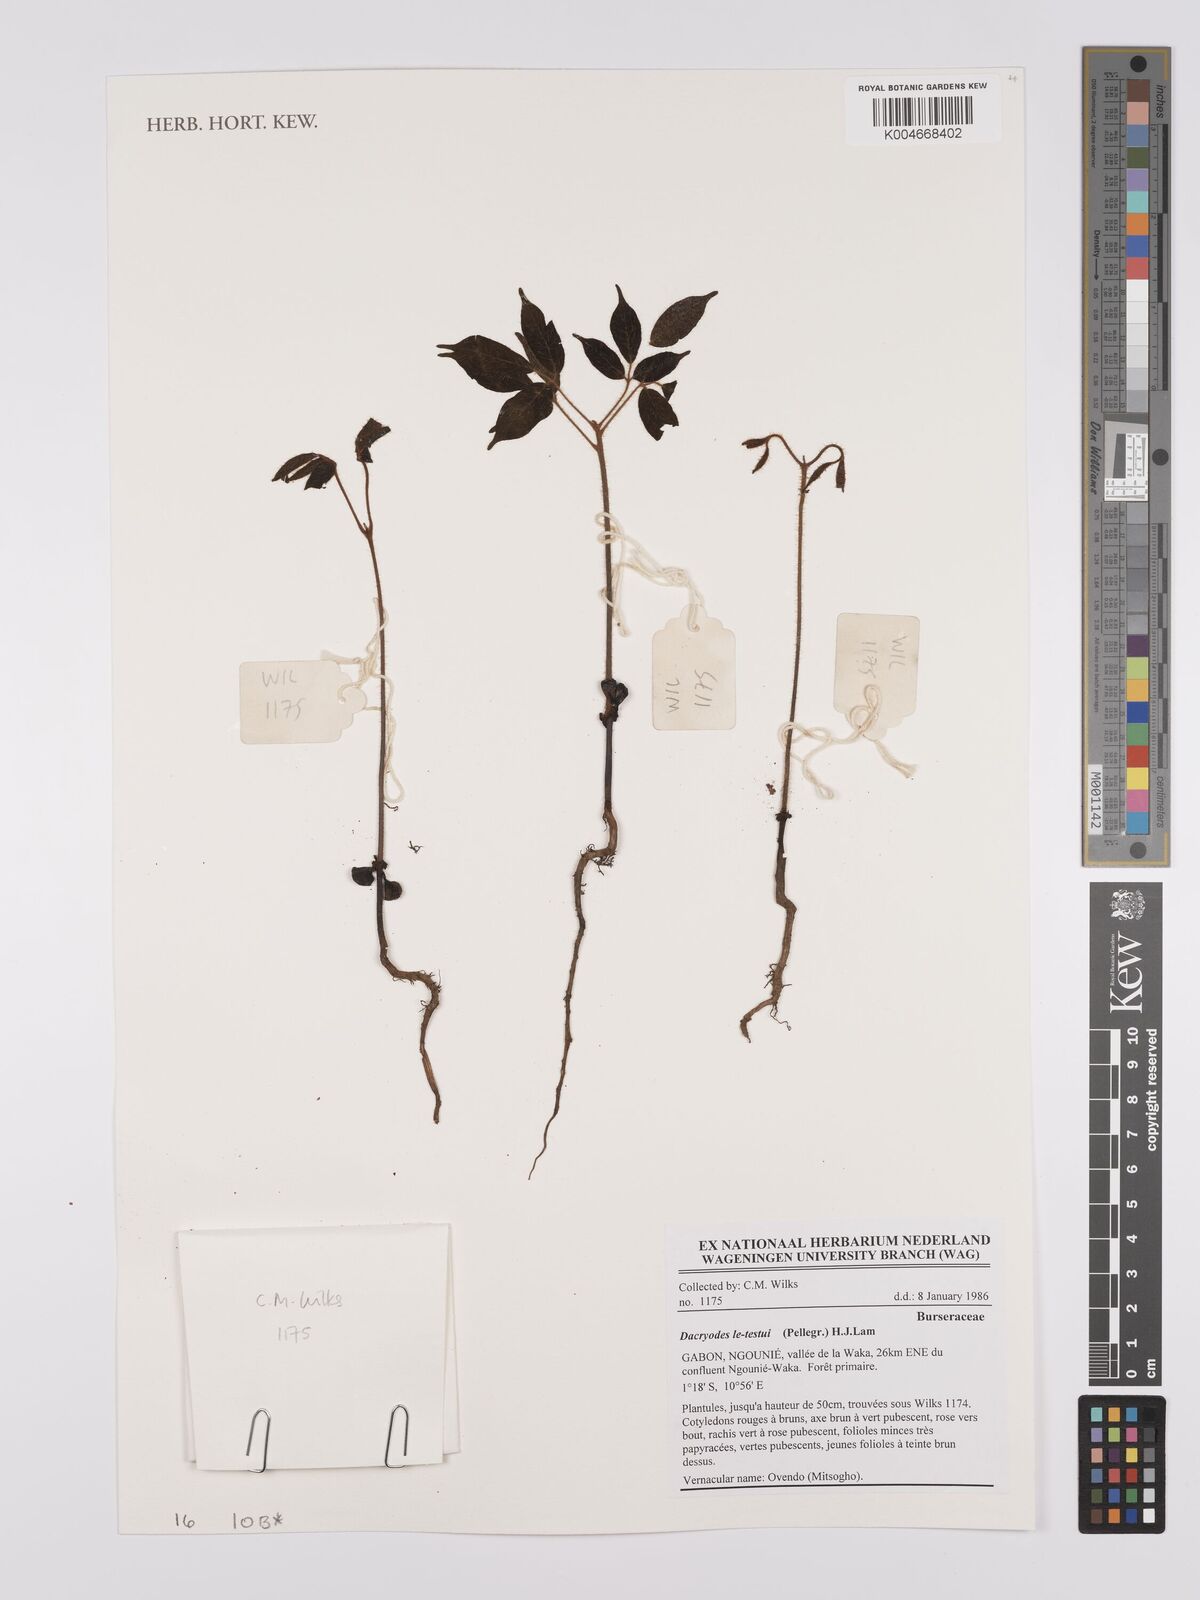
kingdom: Plantae
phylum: Tracheophyta
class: Magnoliopsida
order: Sapindales
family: Burseraceae
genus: Pachylobus
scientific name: Pachylobus letestui
